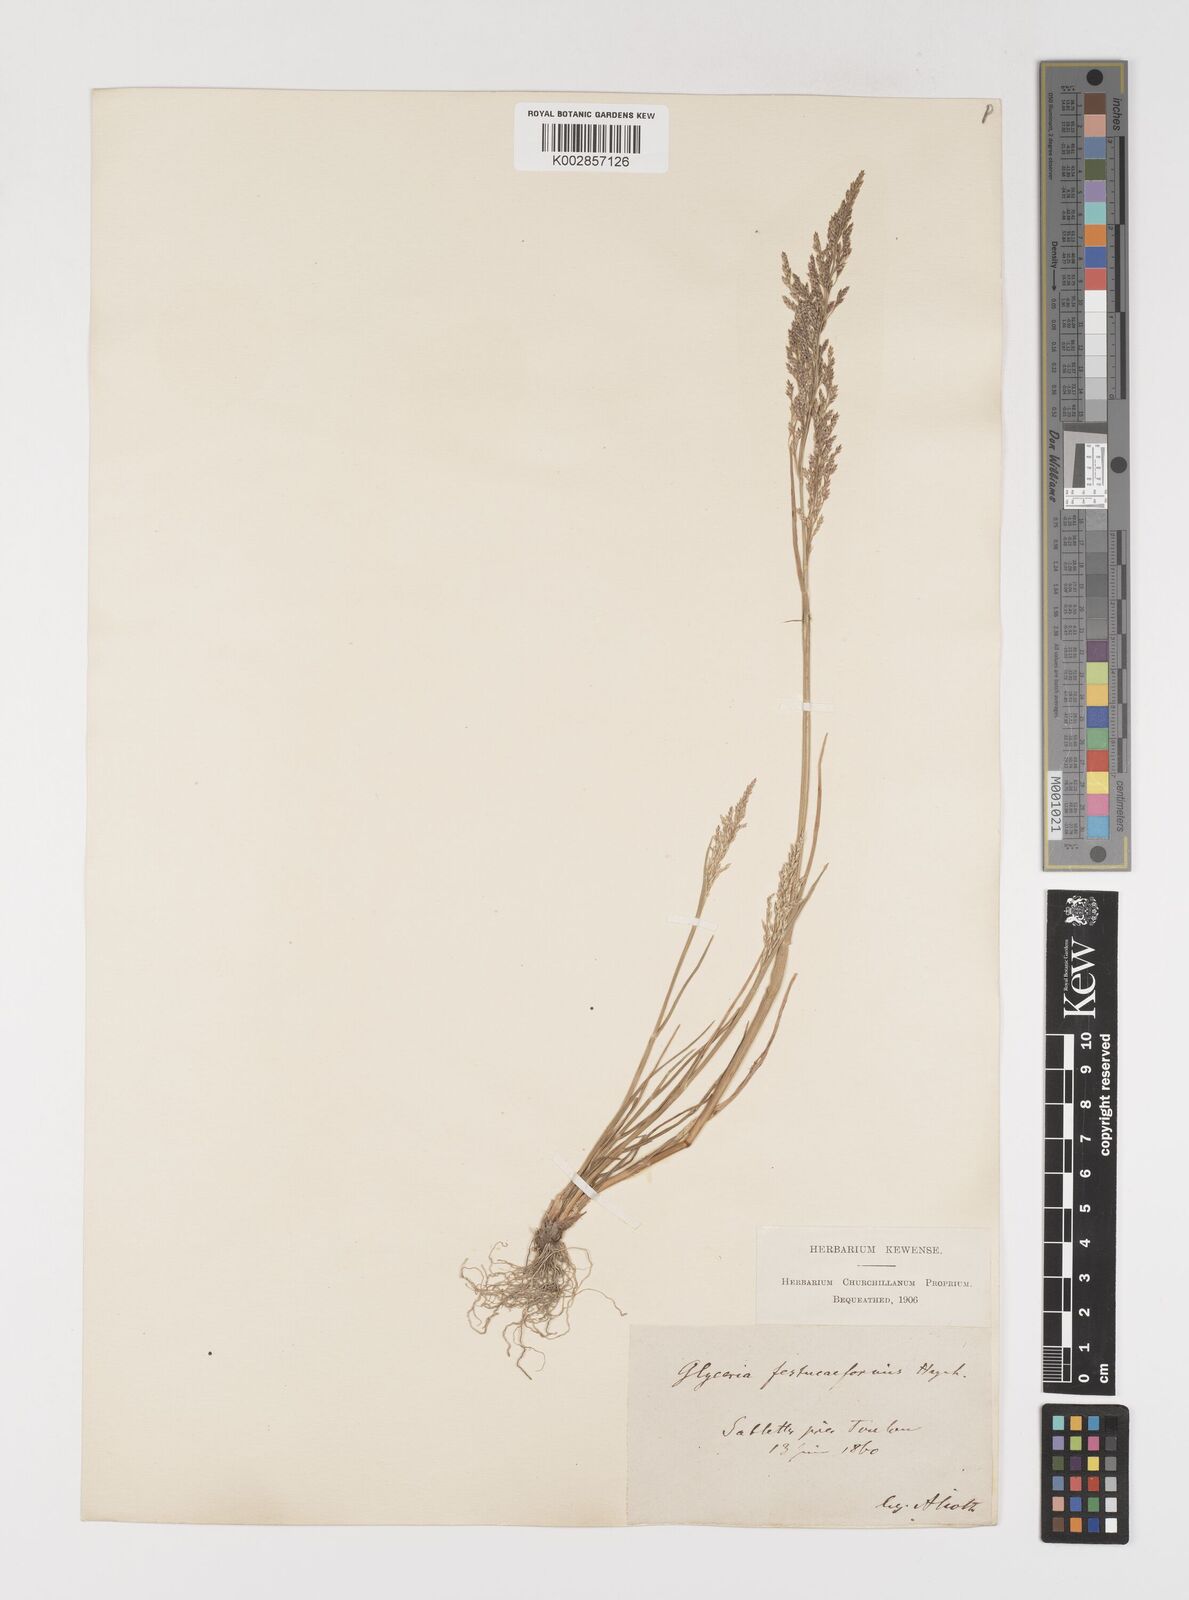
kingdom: Plantae
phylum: Tracheophyta
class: Liliopsida
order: Poales
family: Poaceae
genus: Puccinellia
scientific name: Puccinellia festuciformis
